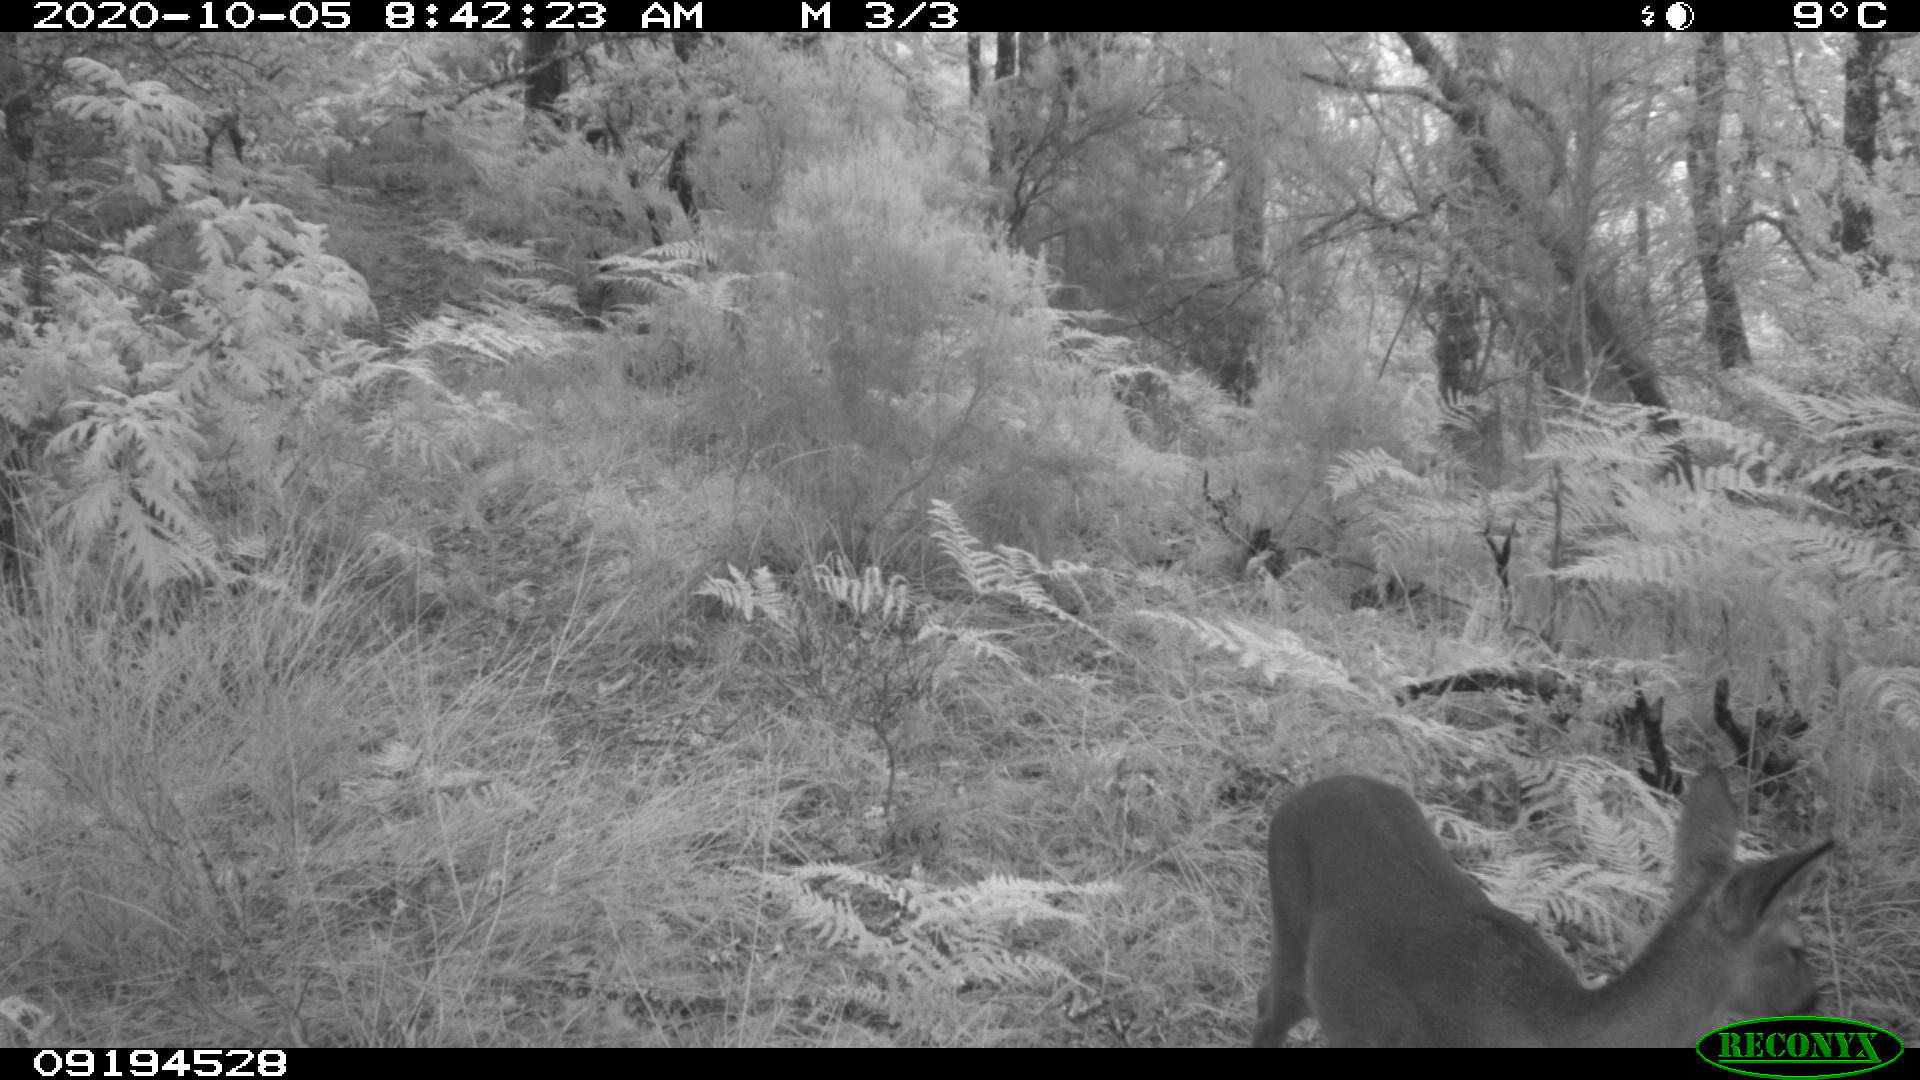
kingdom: Animalia
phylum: Chordata
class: Mammalia
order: Artiodactyla
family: Cervidae
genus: Capreolus
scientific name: Capreolus capreolus
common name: Western roe deer
